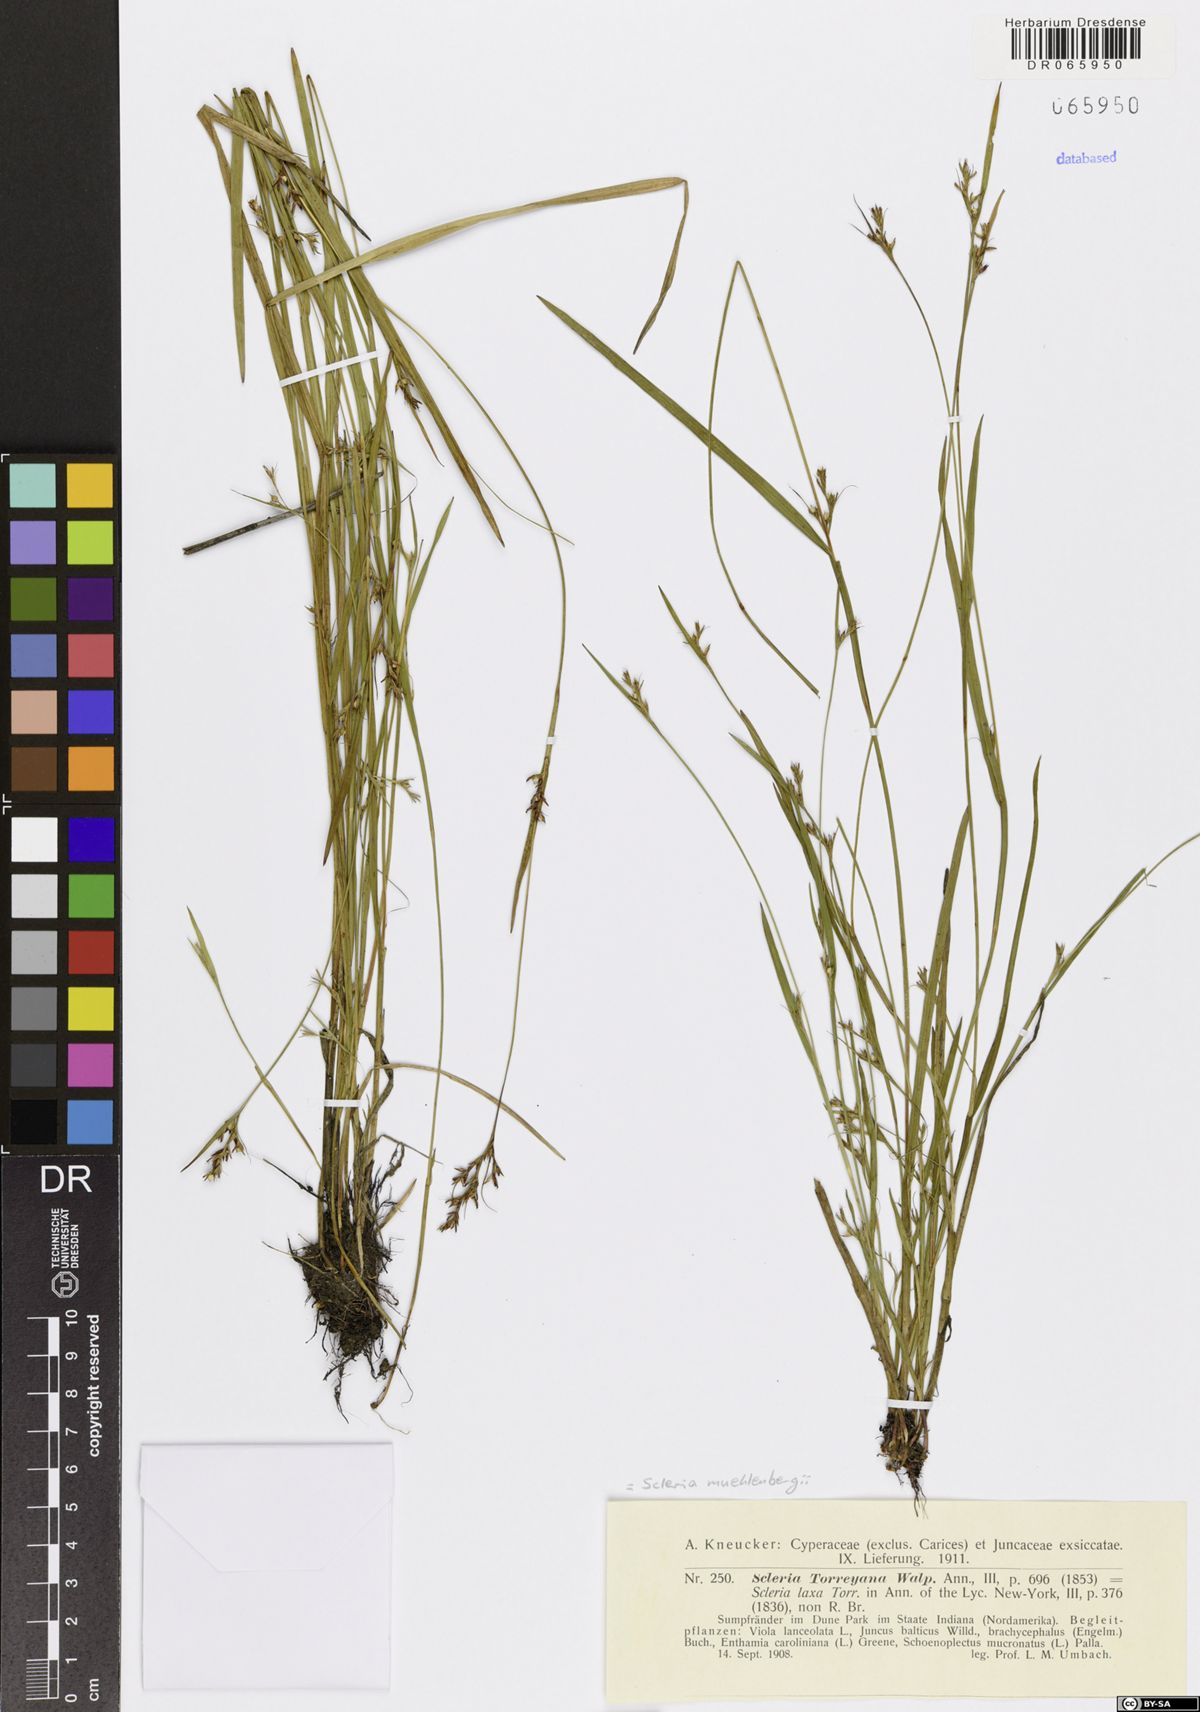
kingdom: Plantae
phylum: Tracheophyta
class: Liliopsida
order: Poales
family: Cyperaceae
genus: Scleria
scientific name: Scleria muehlenbergii
